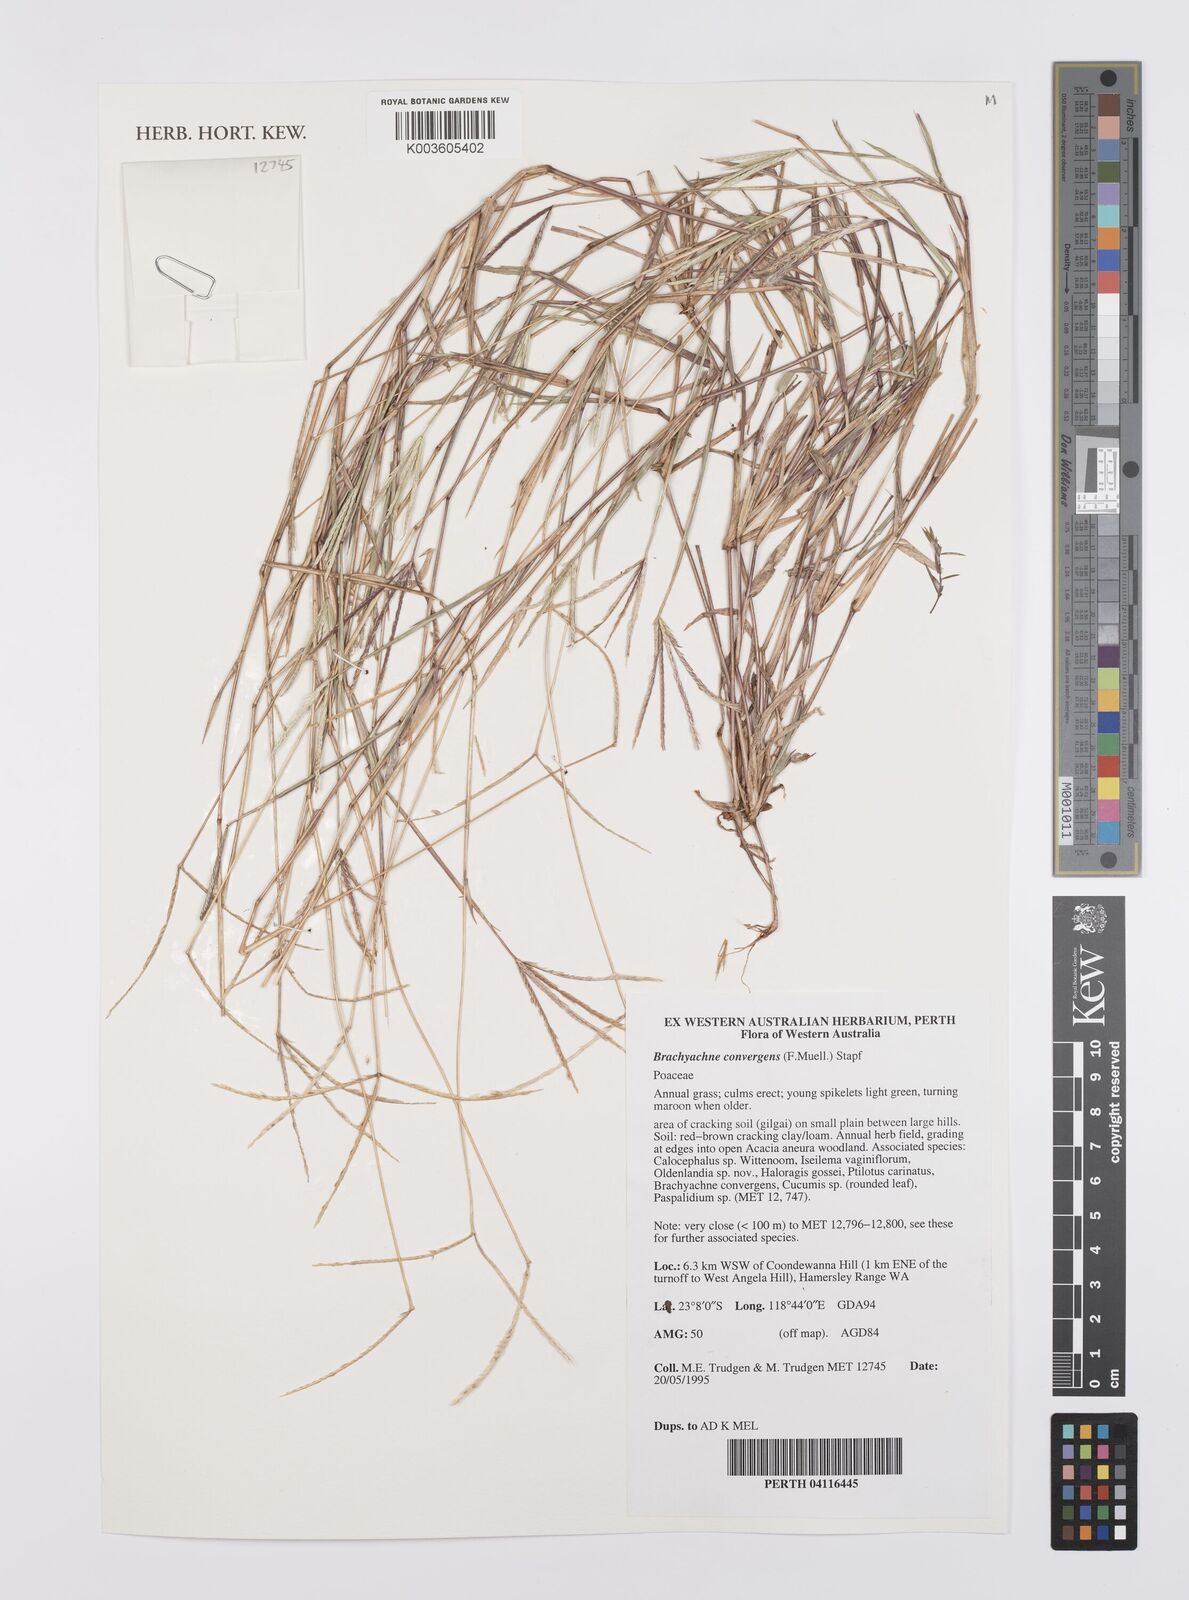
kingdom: Plantae
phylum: Tracheophyta
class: Liliopsida
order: Poales
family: Poaceae
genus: Cynodon
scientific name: Cynodon
